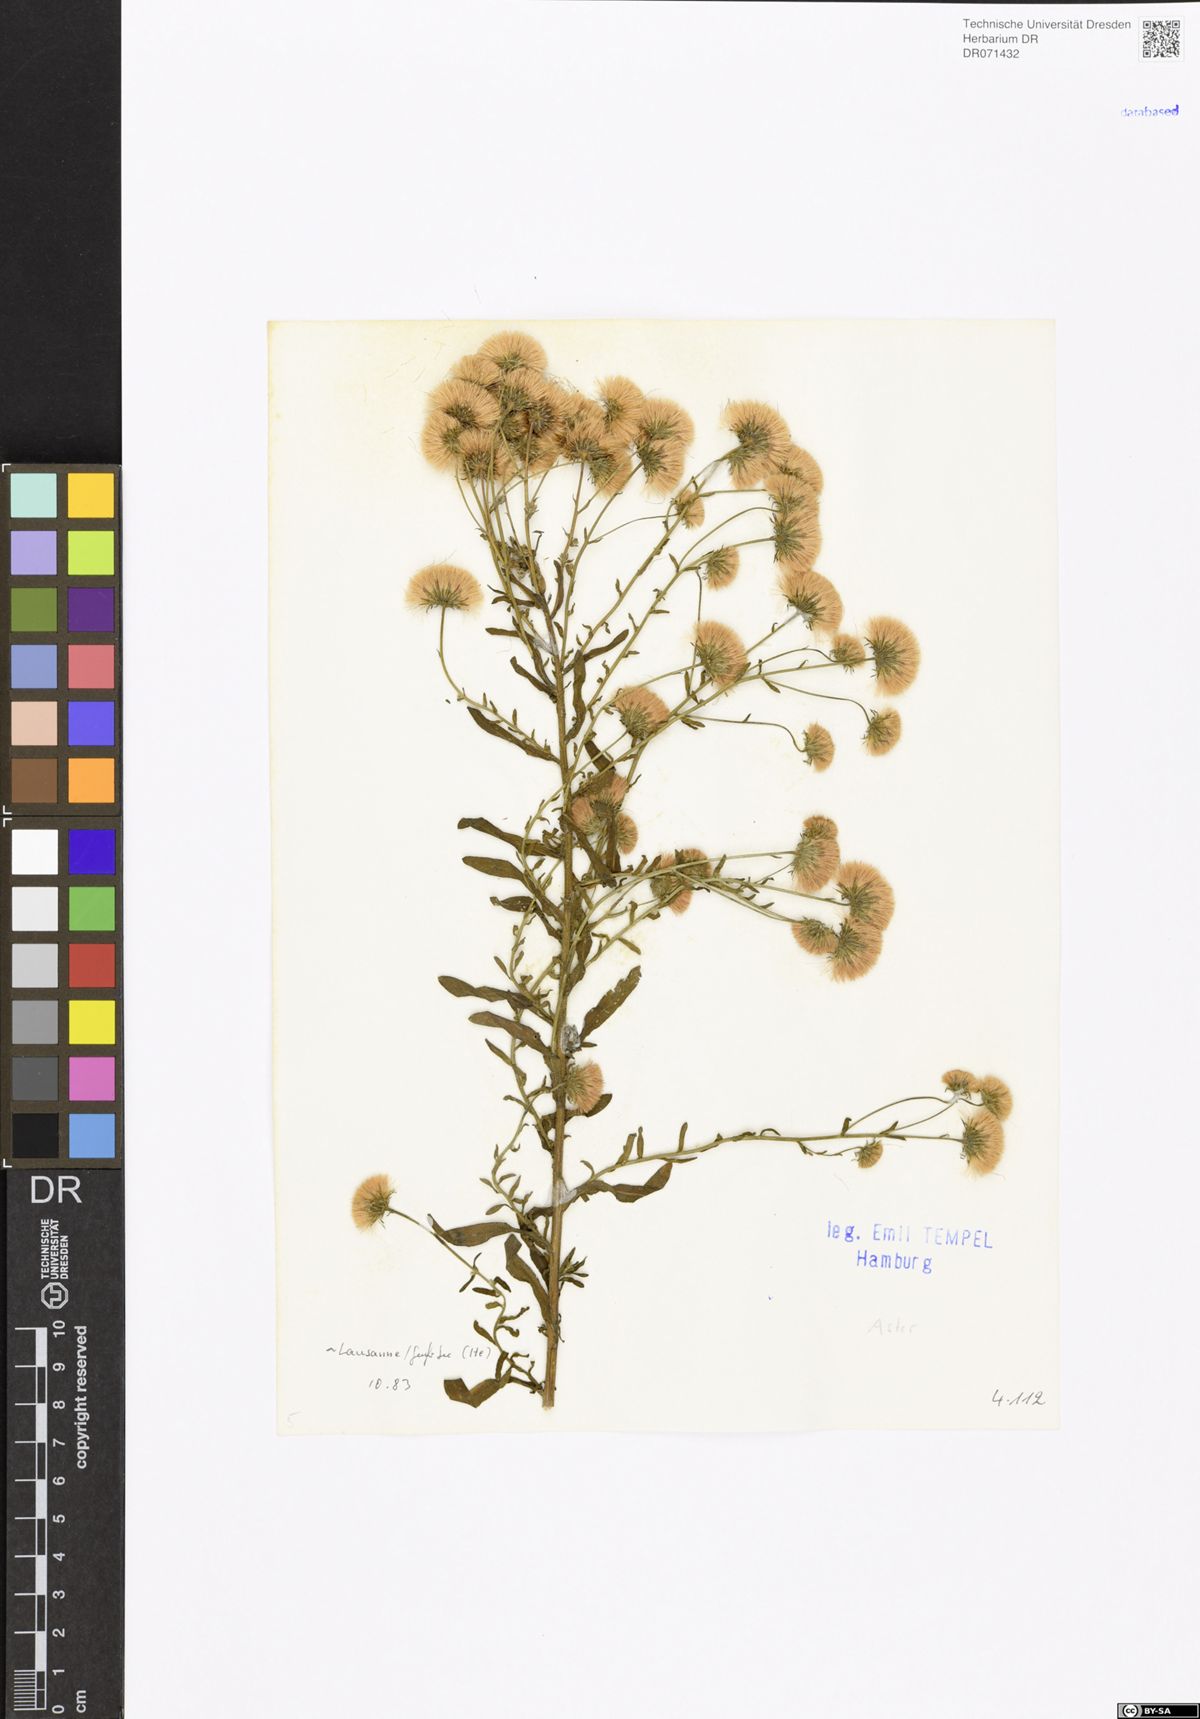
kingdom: Plantae
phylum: Tracheophyta
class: Magnoliopsida
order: Asterales
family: Asteraceae
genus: Aster
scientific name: Aster
